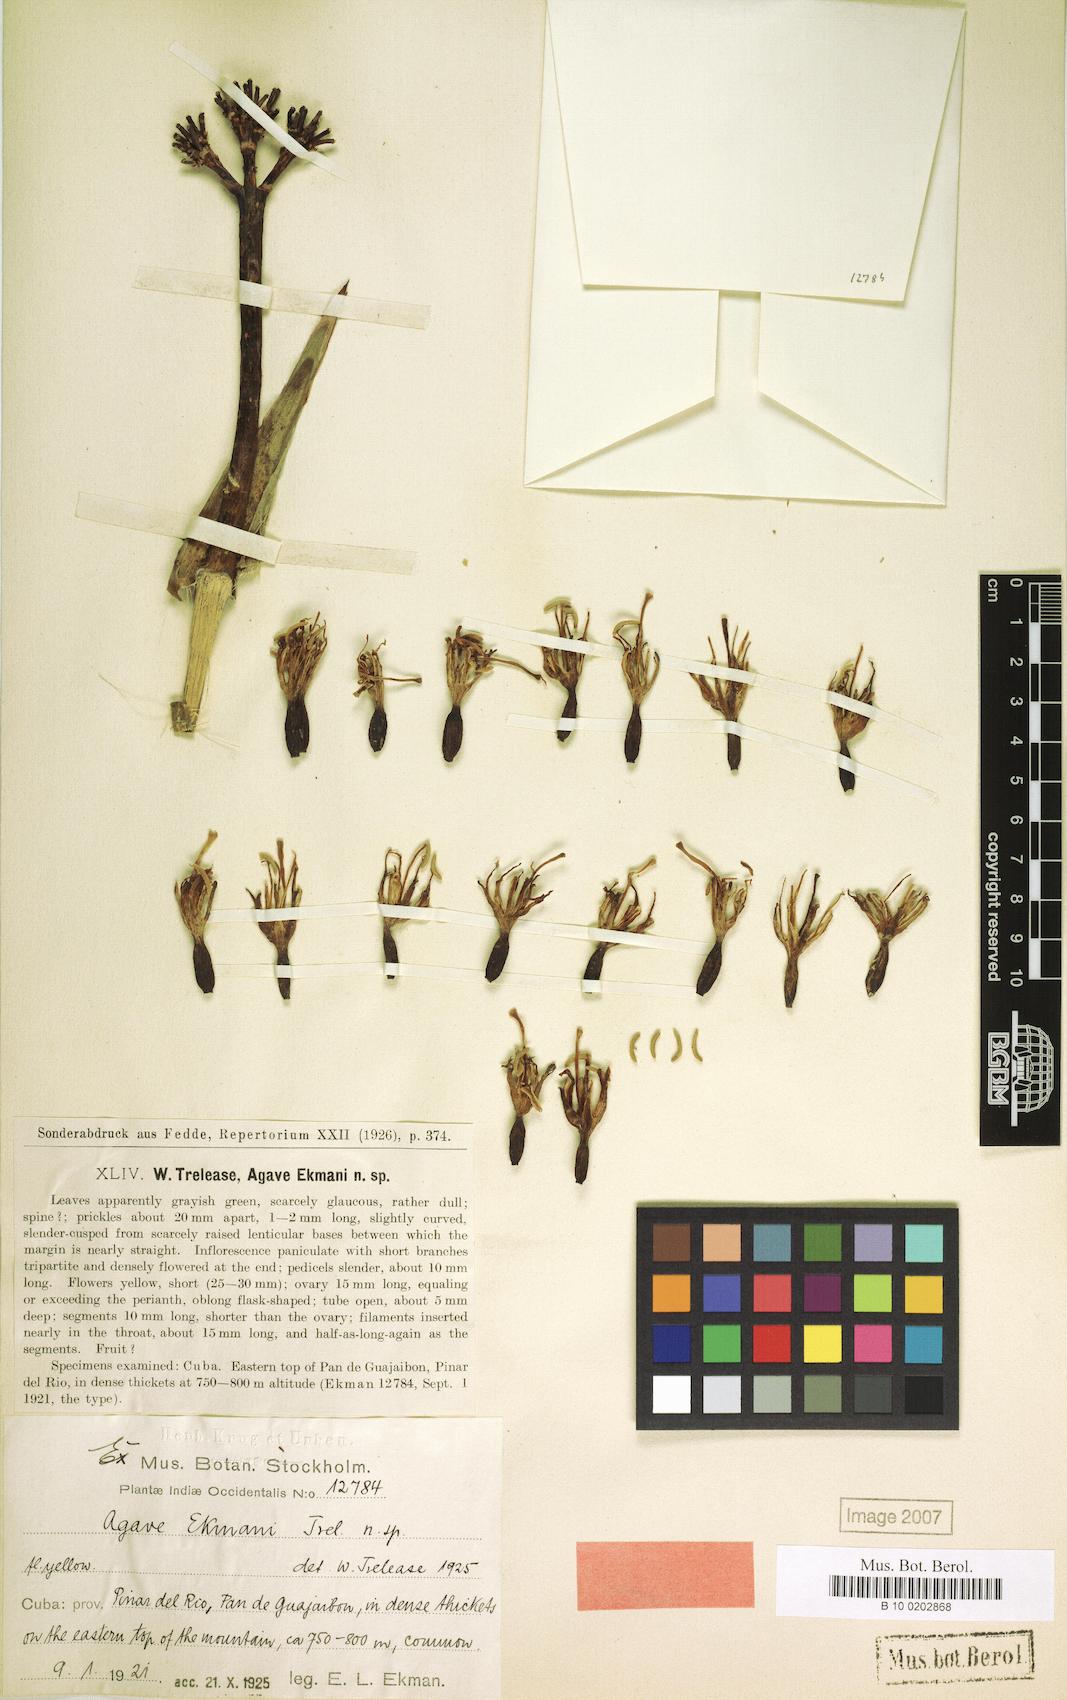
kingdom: Plantae
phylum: Tracheophyta
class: Liliopsida
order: Asparagales
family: Asparagaceae
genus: Agave
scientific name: Agave tubulata
